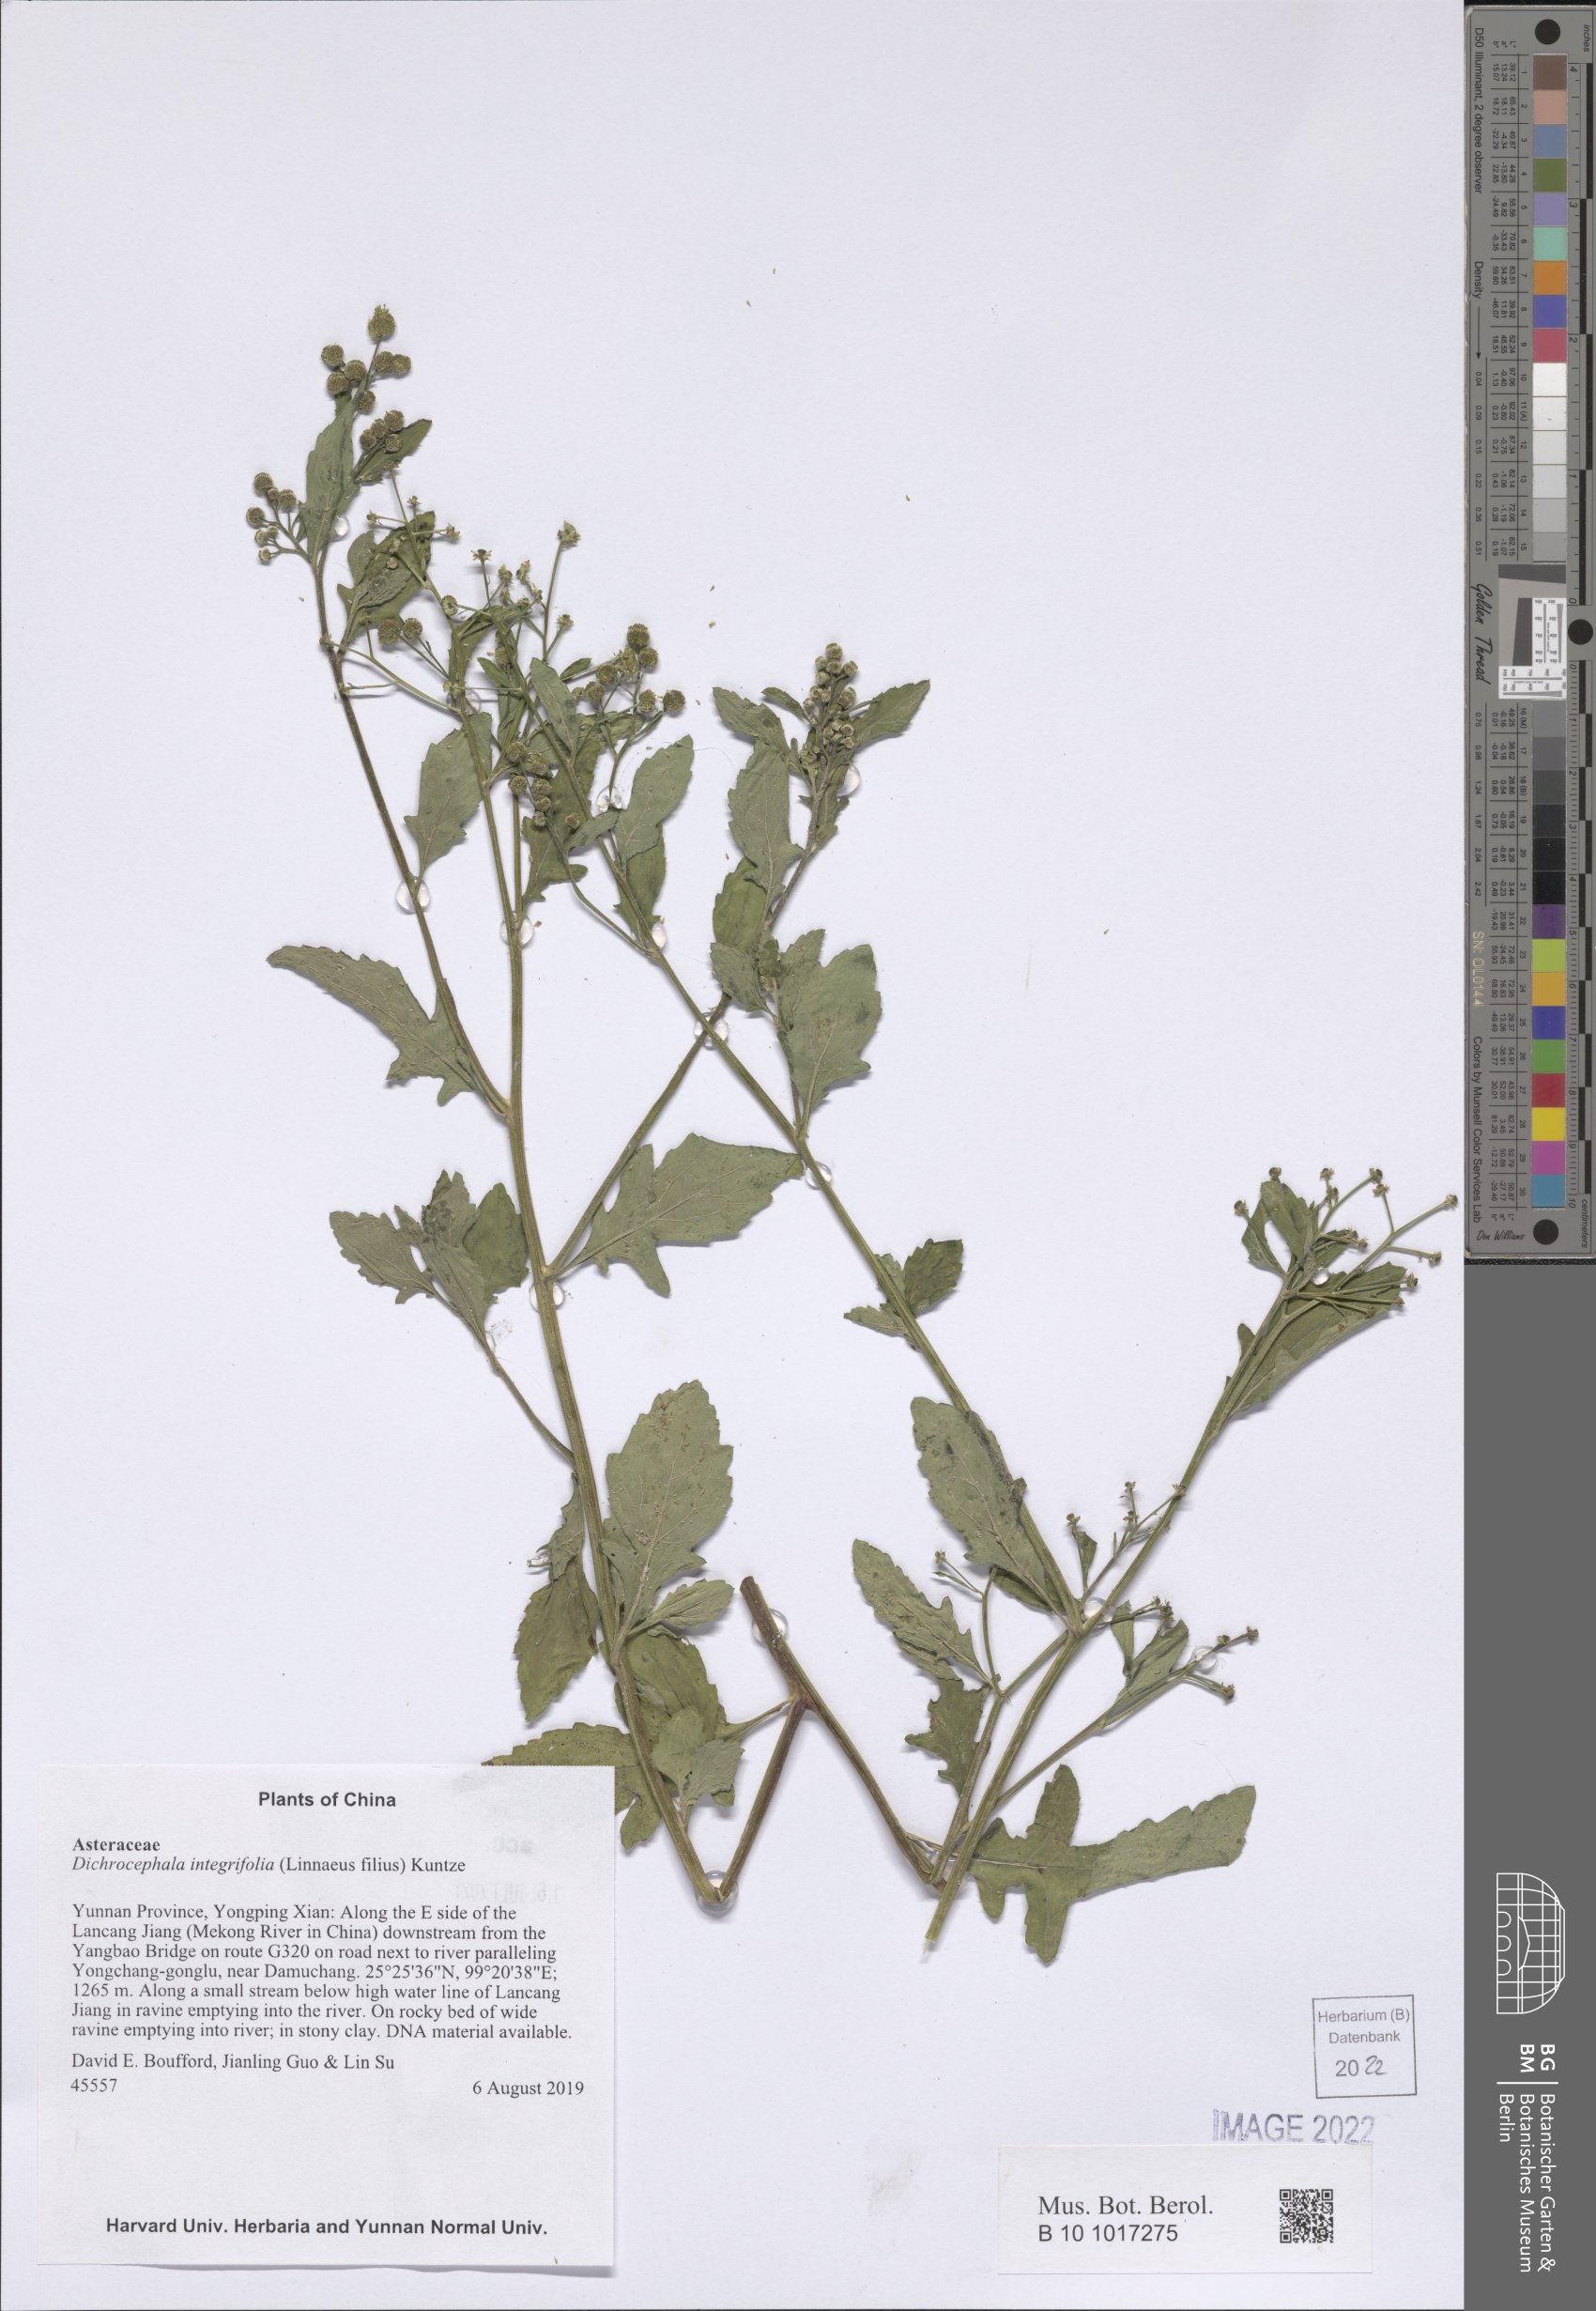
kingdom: Plantae
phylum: Tracheophyta
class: Magnoliopsida
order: Asterales
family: Asteraceae
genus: Dichrocephala
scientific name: Dichrocephala integrifolia
